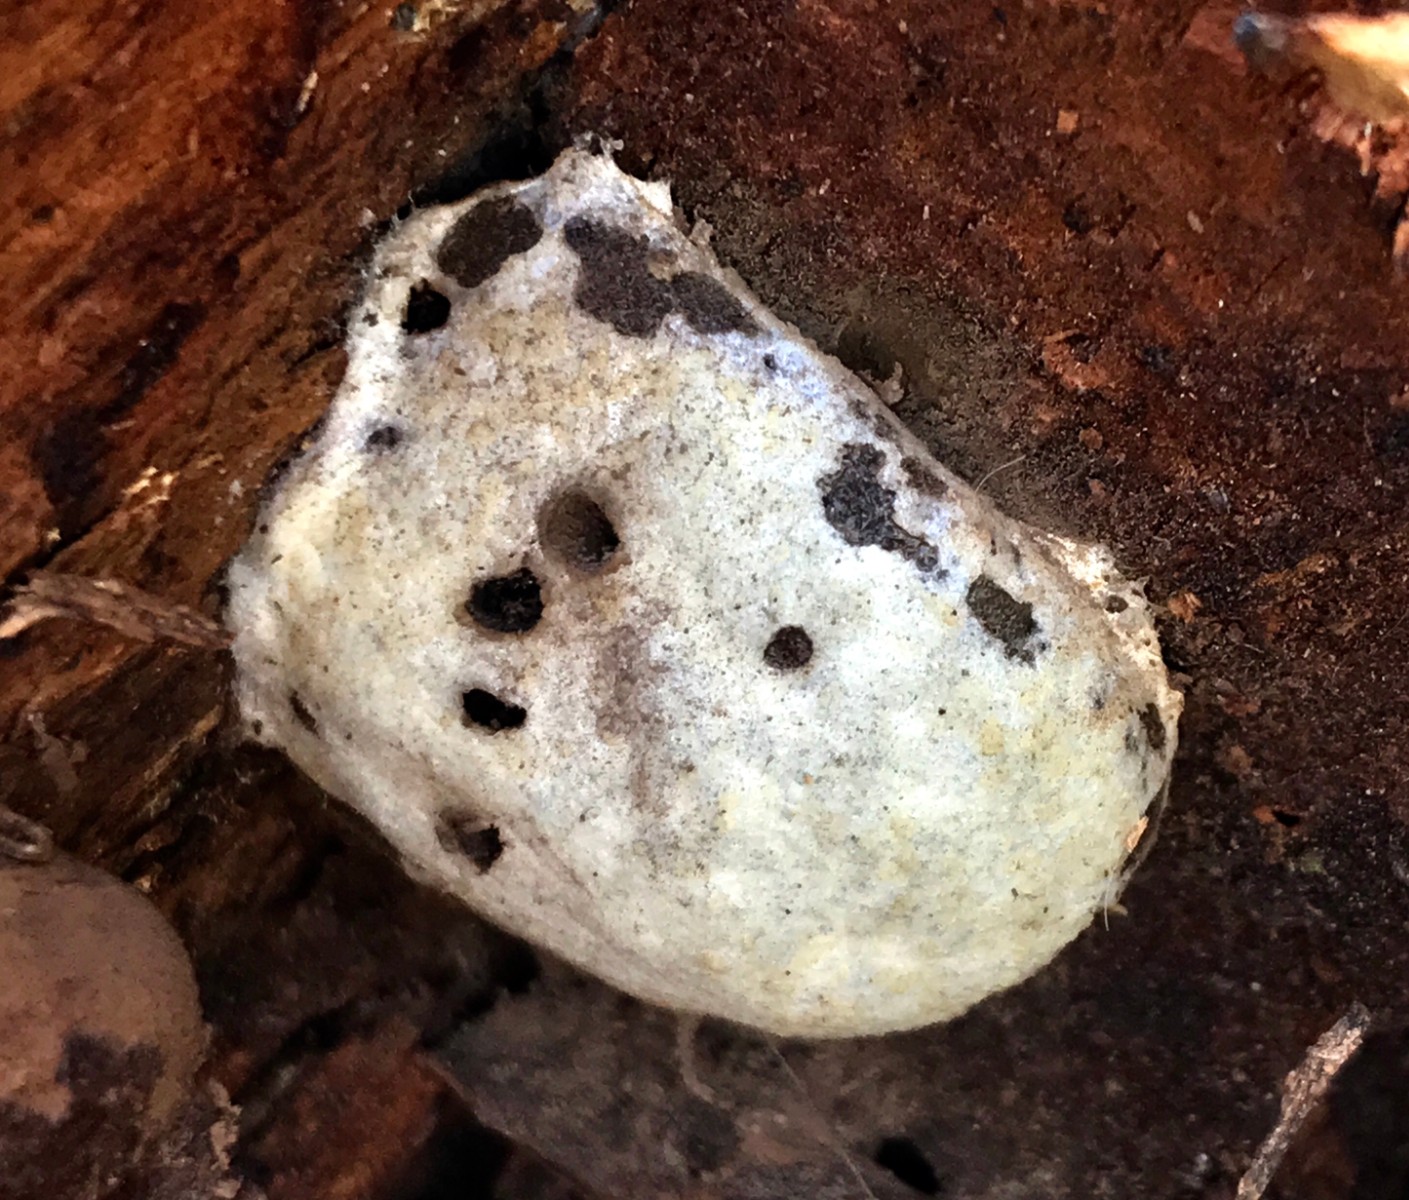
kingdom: Protozoa
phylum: Mycetozoa
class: Myxomycetes
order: Cribrariales
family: Tubiferaceae
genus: Reticularia
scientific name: Reticularia lycoperdon
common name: skinnende støvpude
